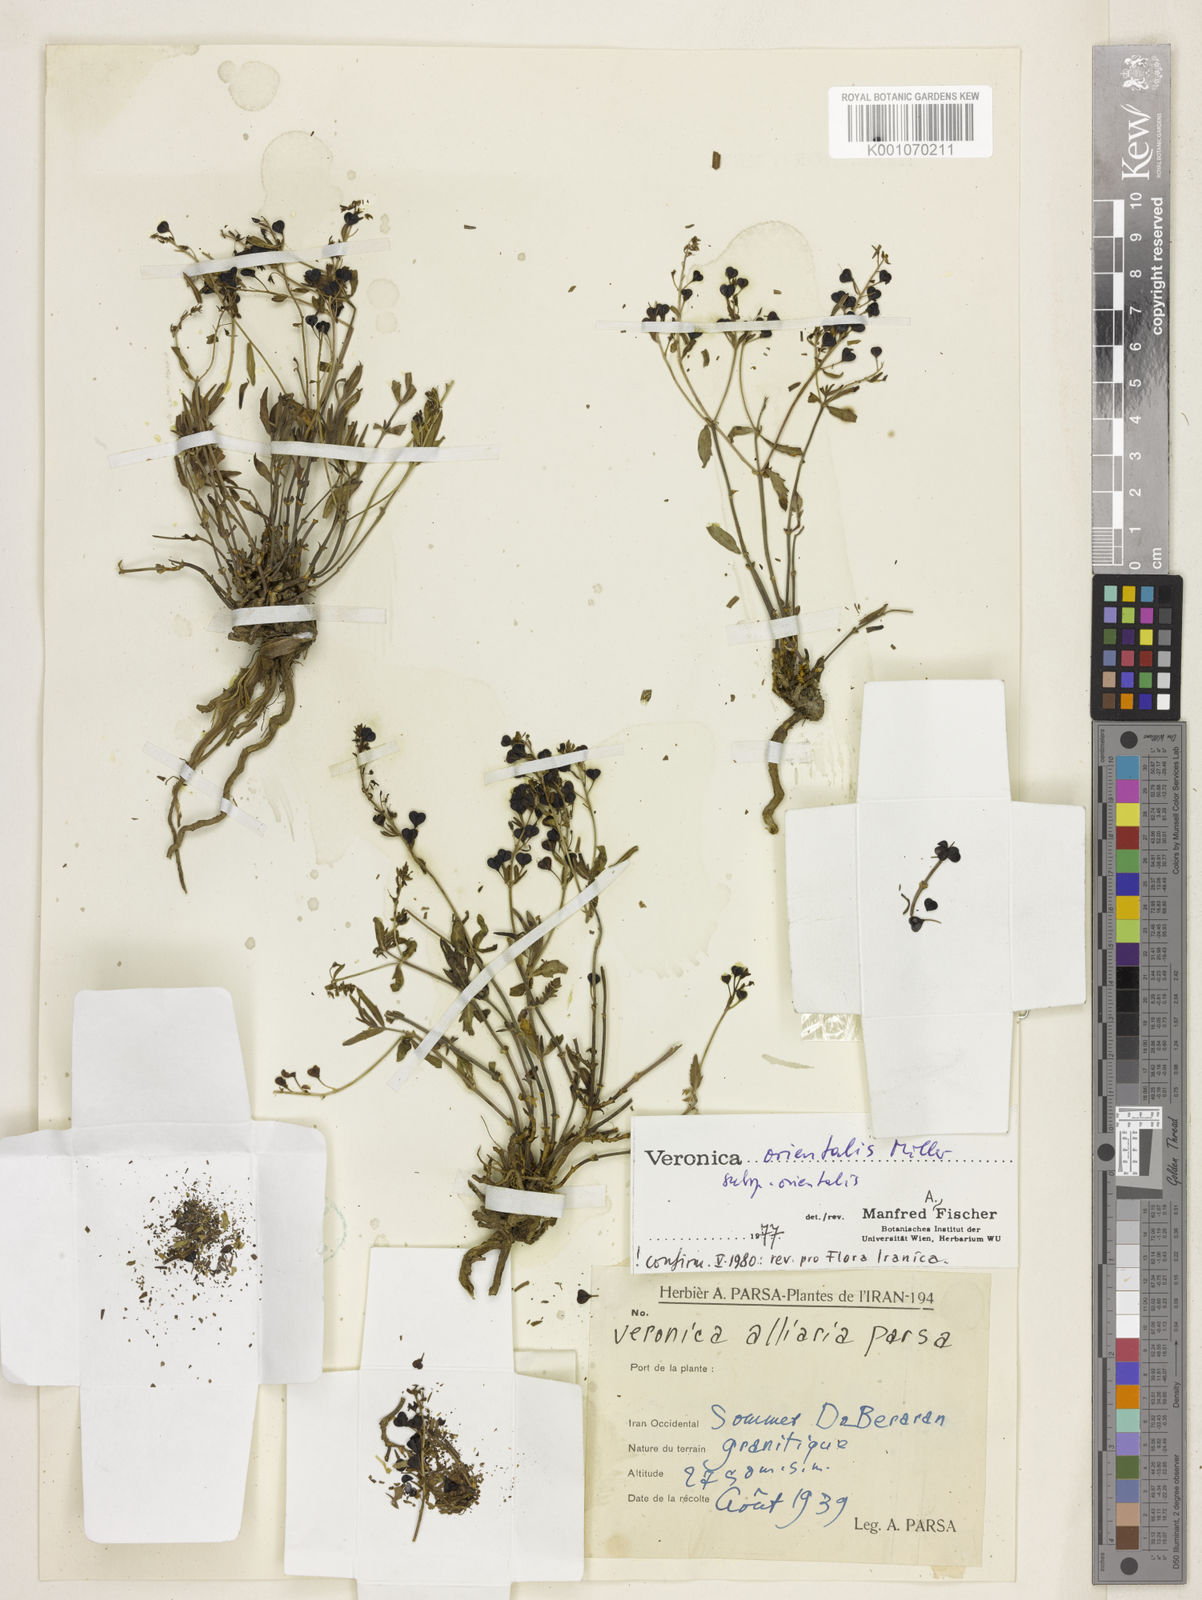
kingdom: Plantae
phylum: Tracheophyta
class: Magnoliopsida
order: Lamiales
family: Plantaginaceae
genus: Veronica
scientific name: Veronica orientalis
